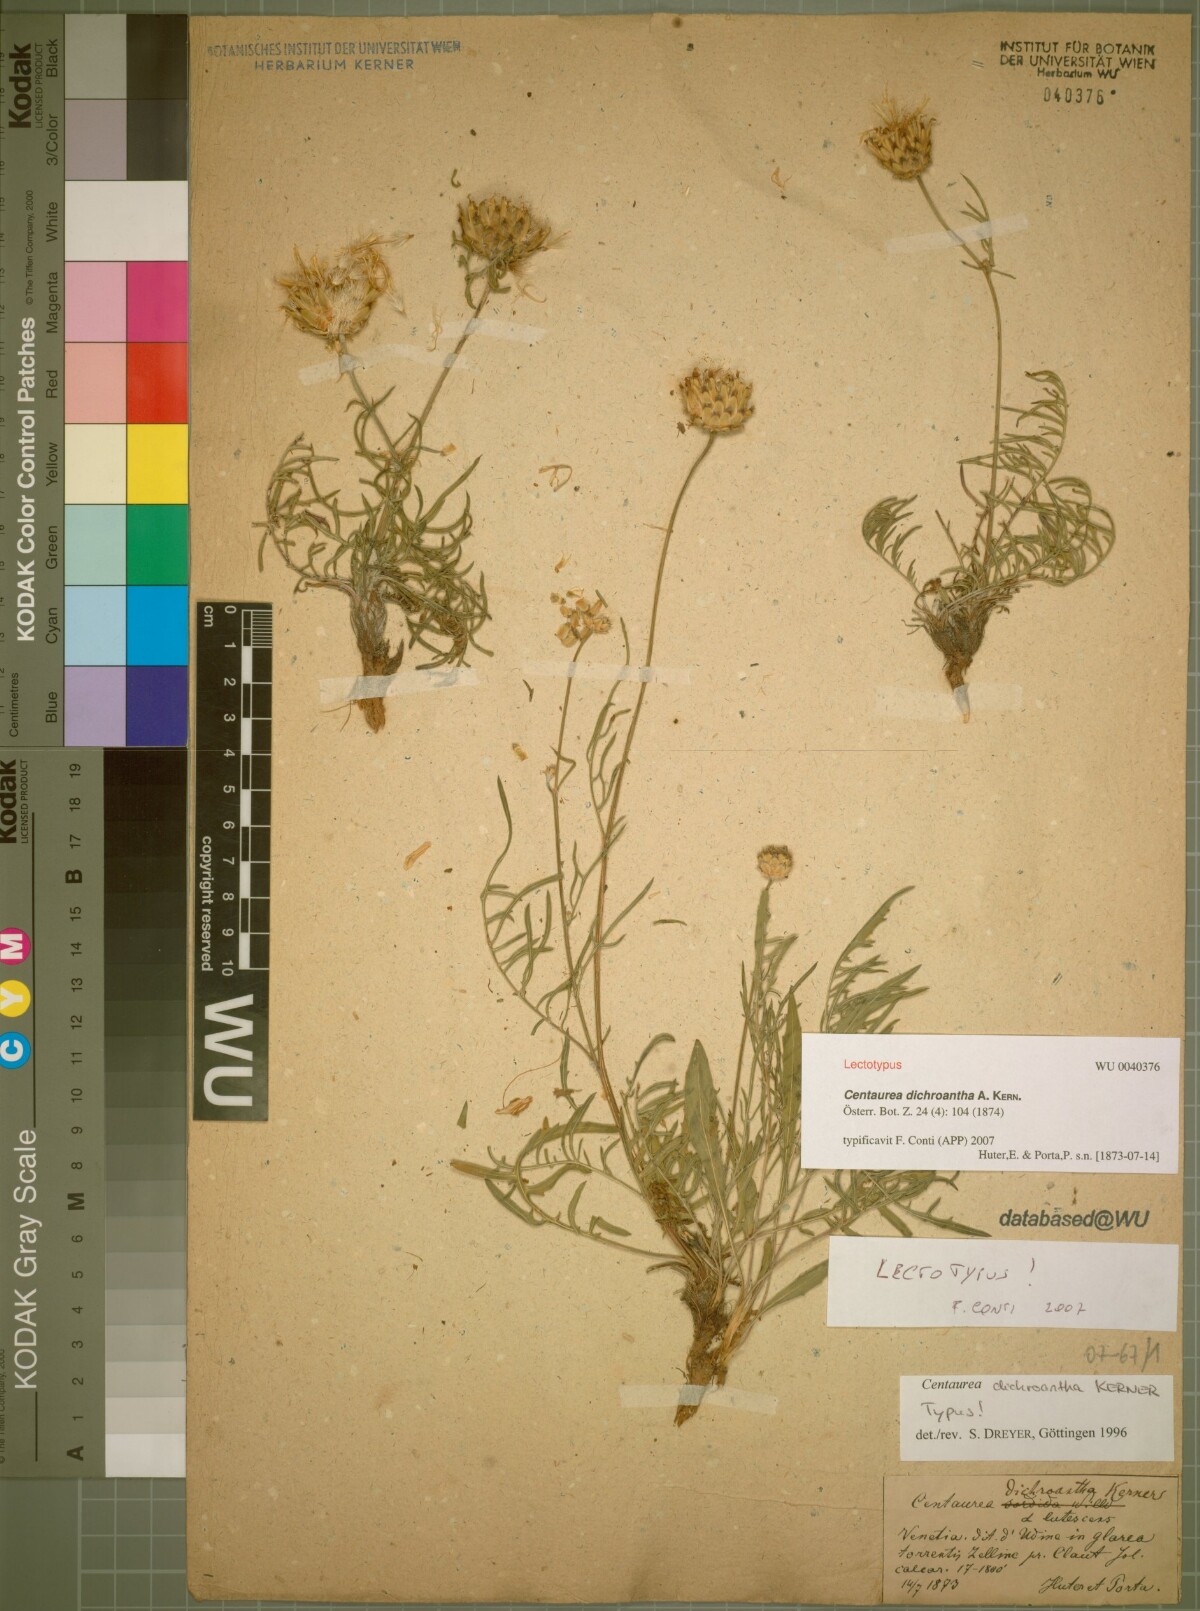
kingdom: Plantae
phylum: Tracheophyta
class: Magnoliopsida
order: Asterales
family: Asteraceae
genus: Centaurea
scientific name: Centaurea dichroantha
